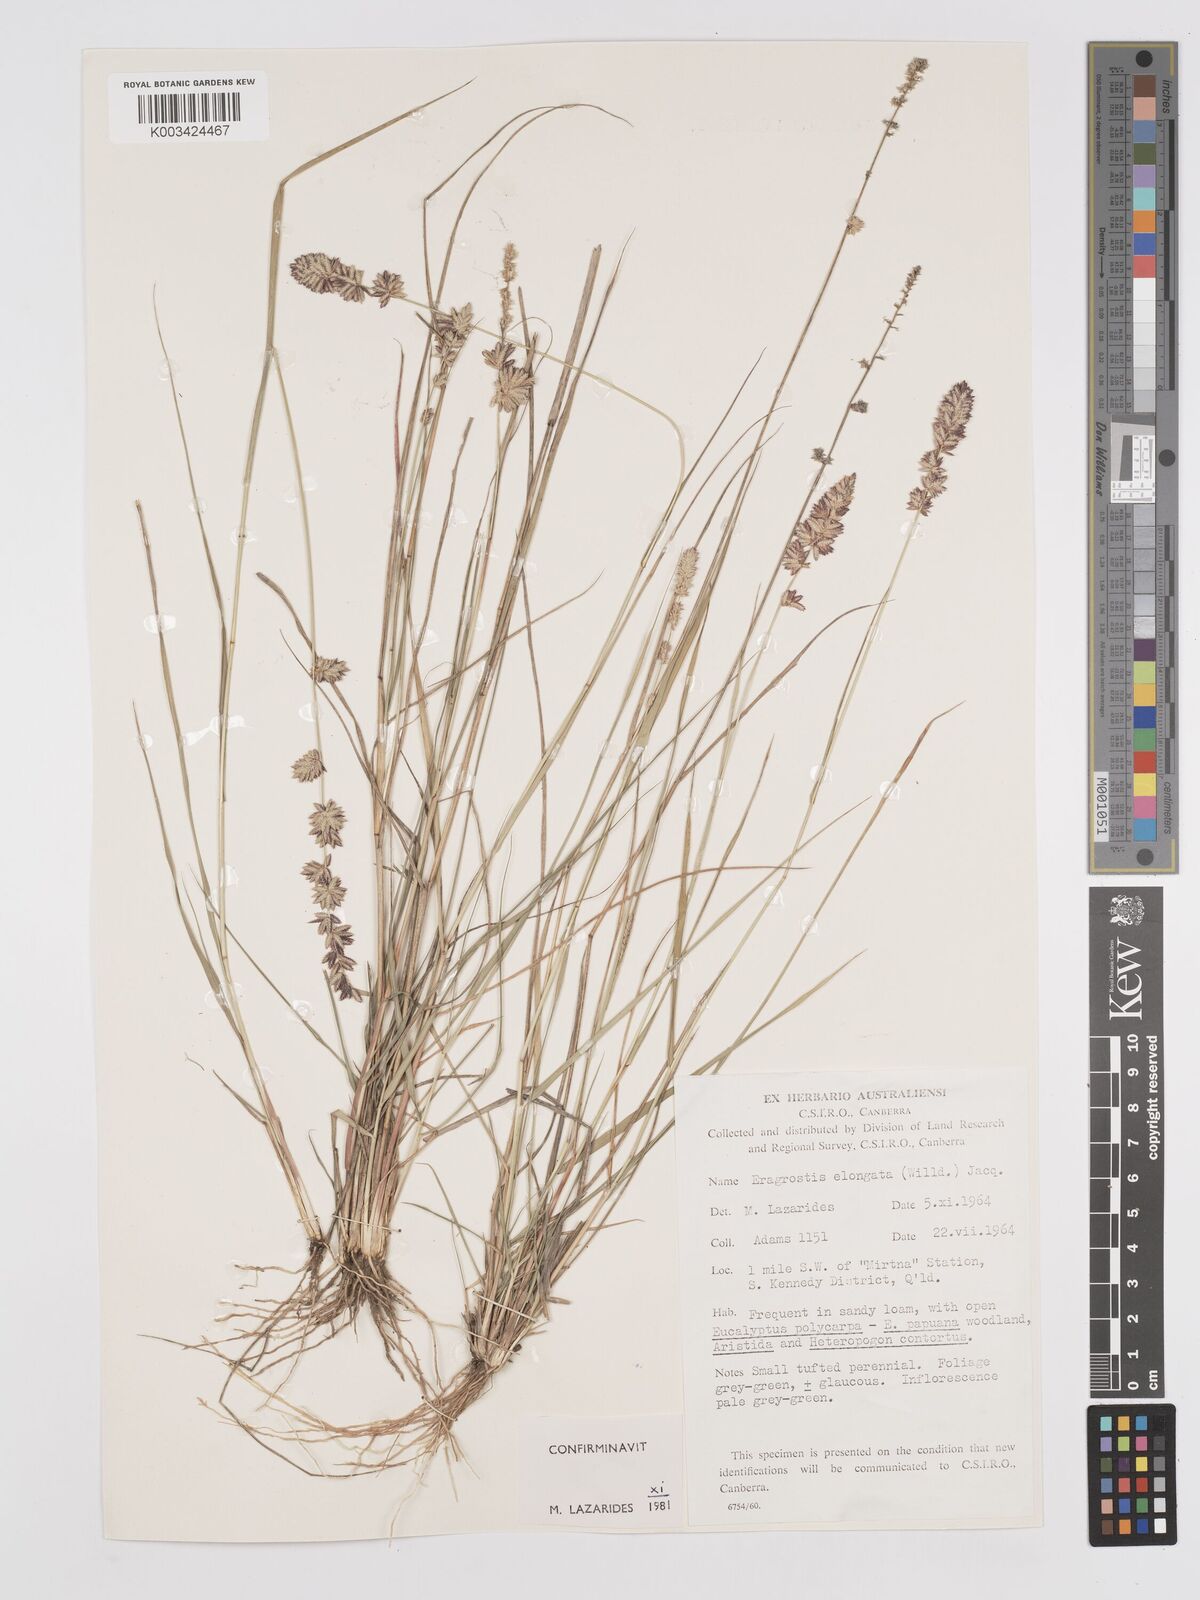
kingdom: Plantae
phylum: Tracheophyta
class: Liliopsida
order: Poales
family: Poaceae
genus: Eragrostis
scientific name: Eragrostis elongata
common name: Long lovegrass
